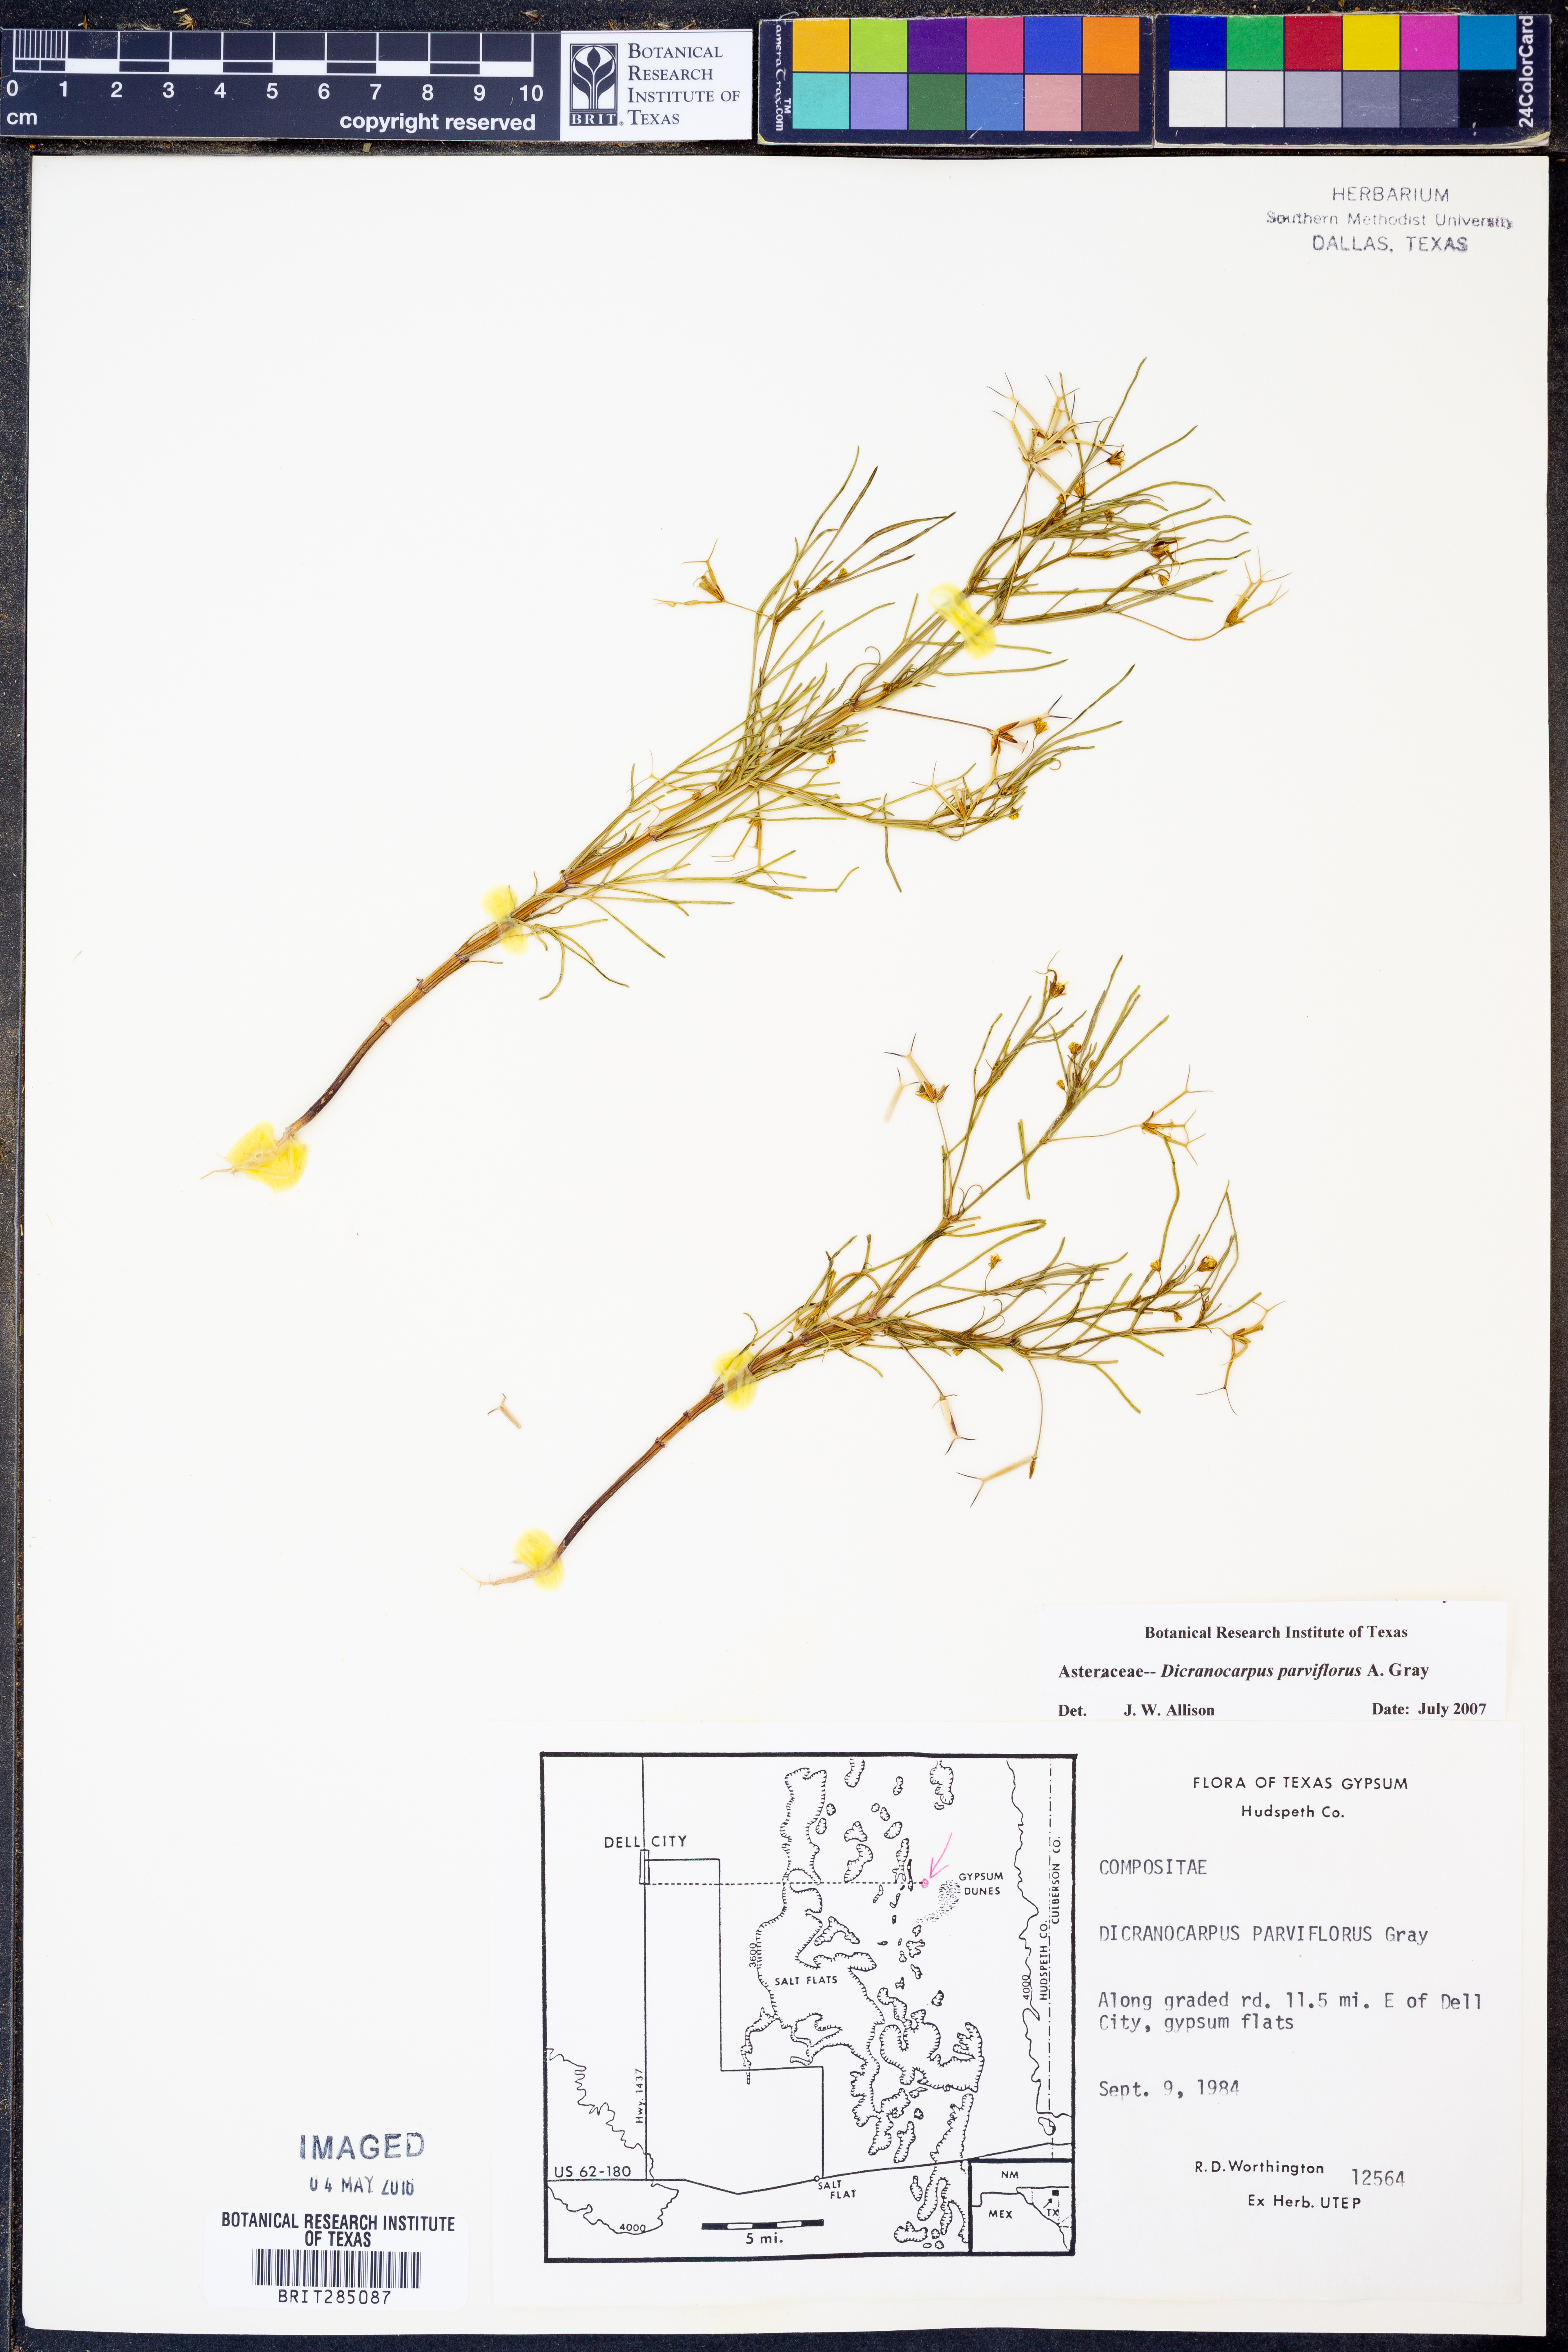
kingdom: Plantae
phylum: Tracheophyta
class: Magnoliopsida
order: Asterales
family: Asteraceae
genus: Dicranocarpus
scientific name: Dicranocarpus parviflorus
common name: Pitchfork
